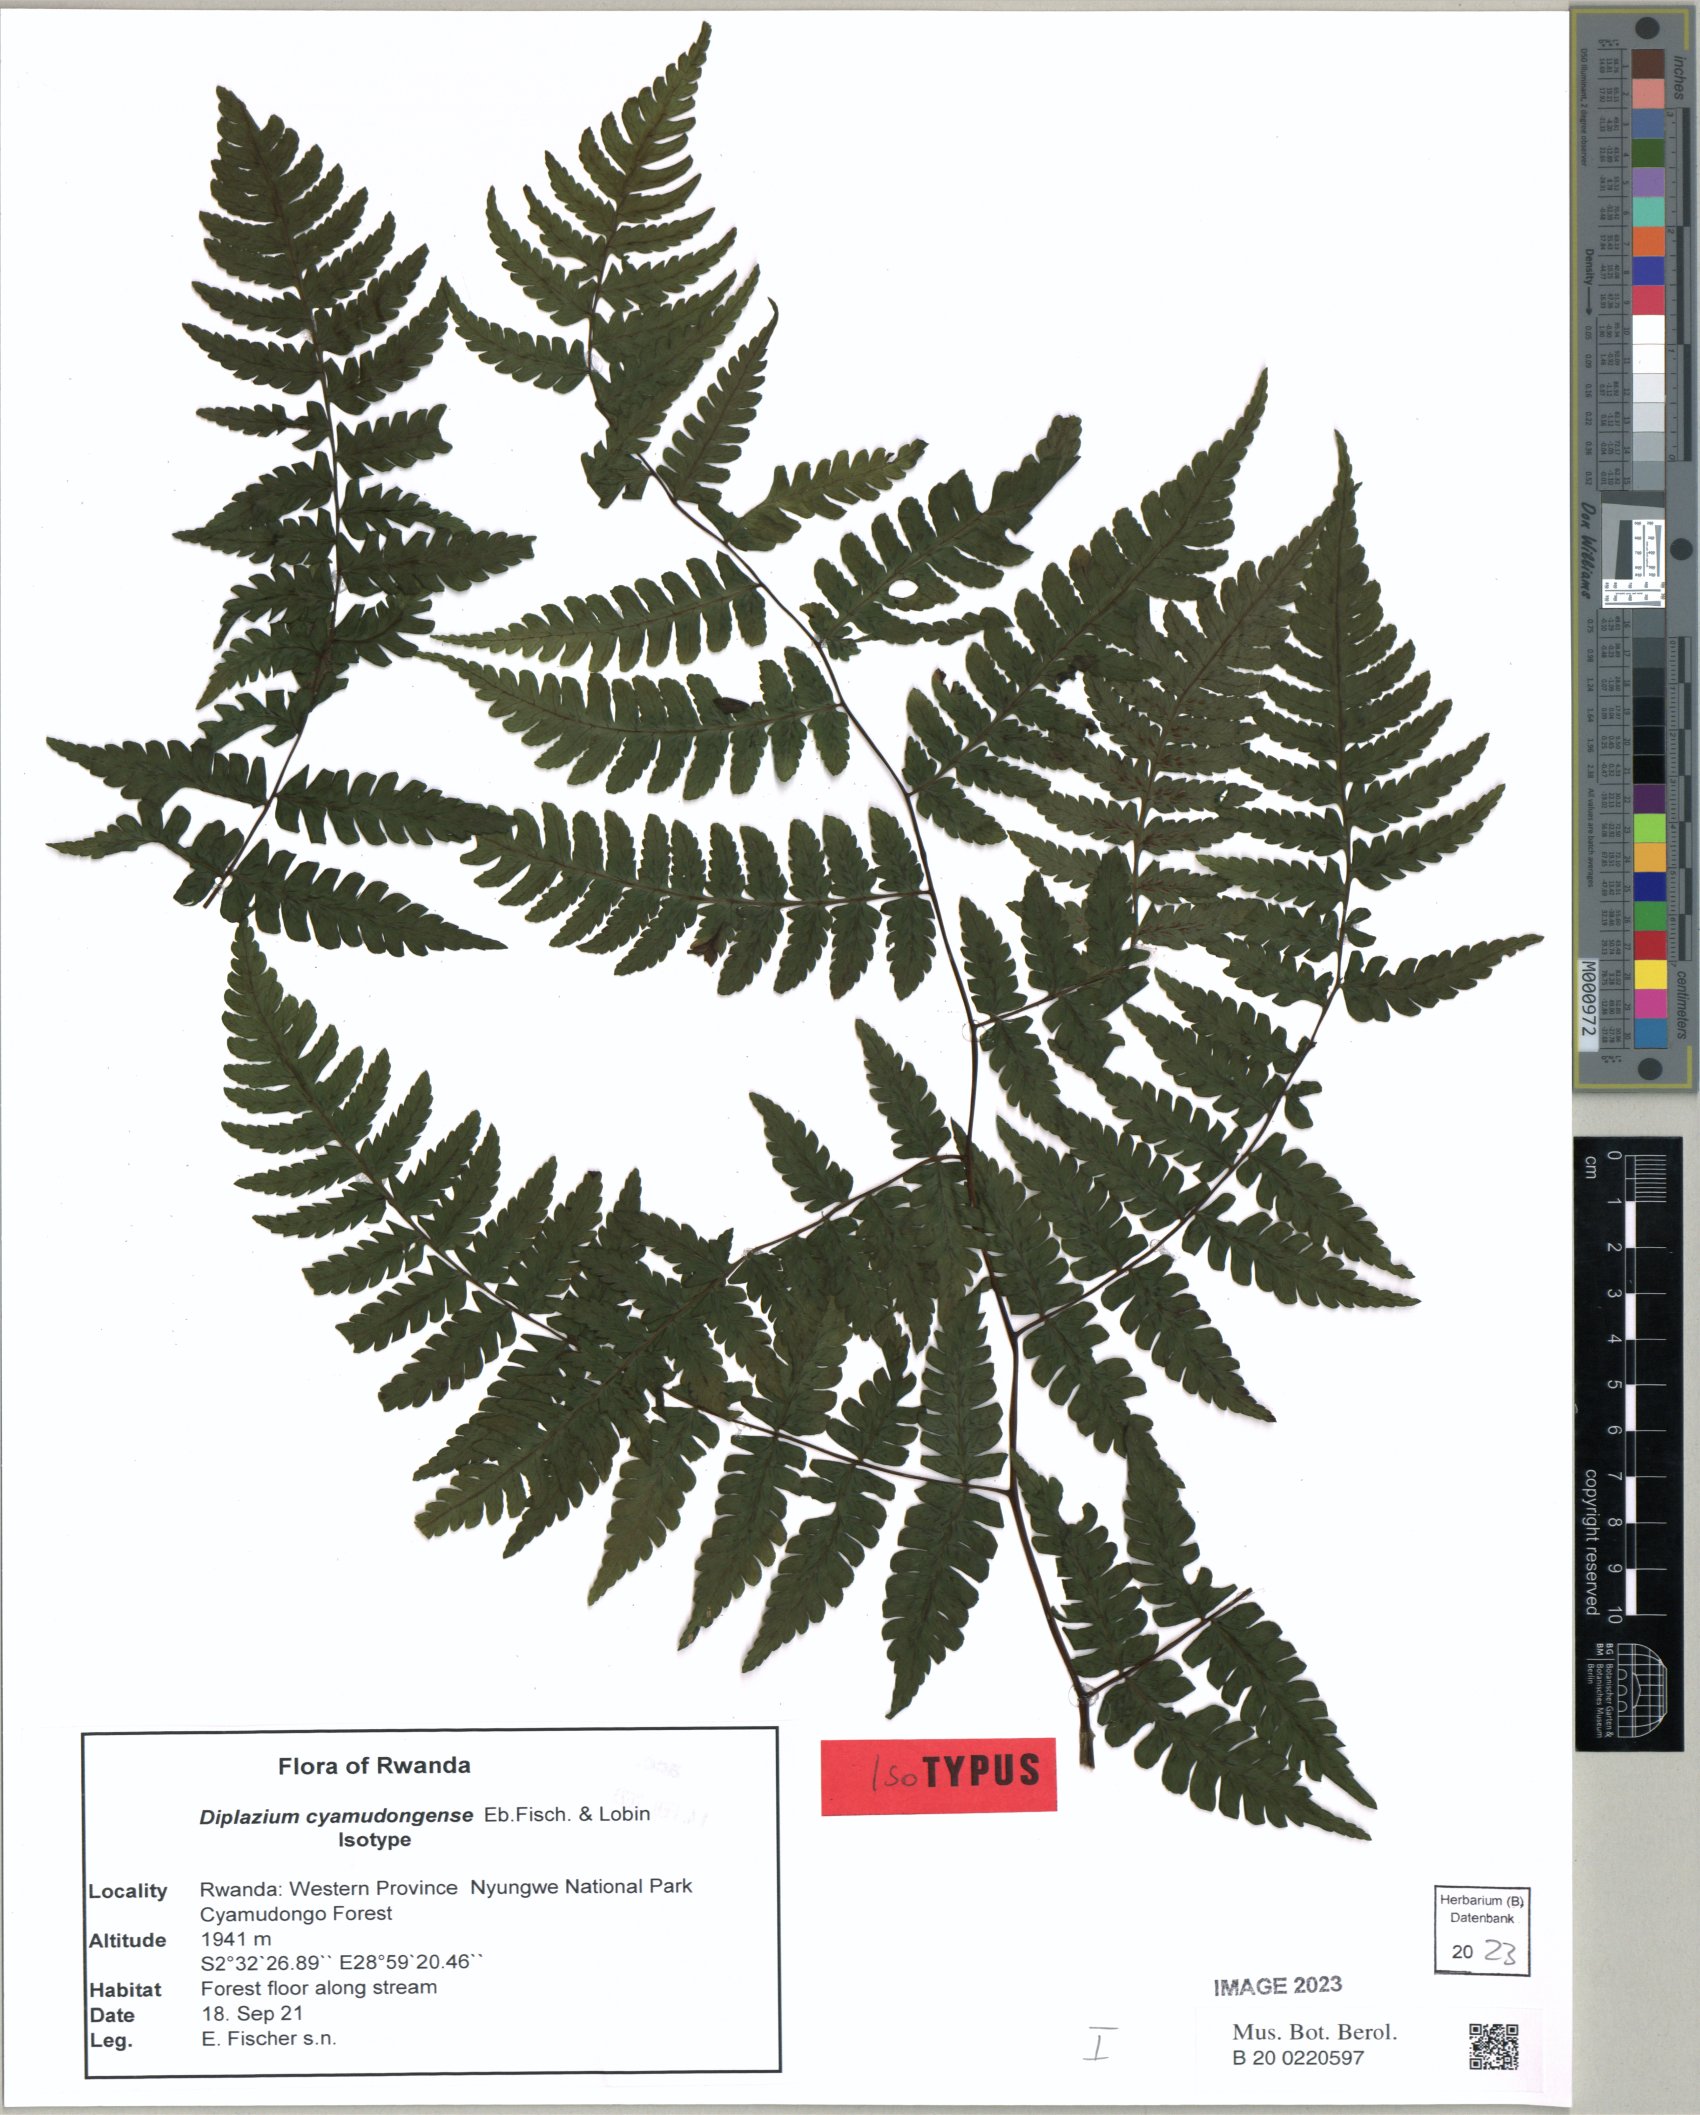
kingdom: Plantae
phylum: Tracheophyta
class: Polypodiopsida
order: Polypodiales
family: Athyriaceae
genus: Diplazium
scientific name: Diplazium cyamudongoense
